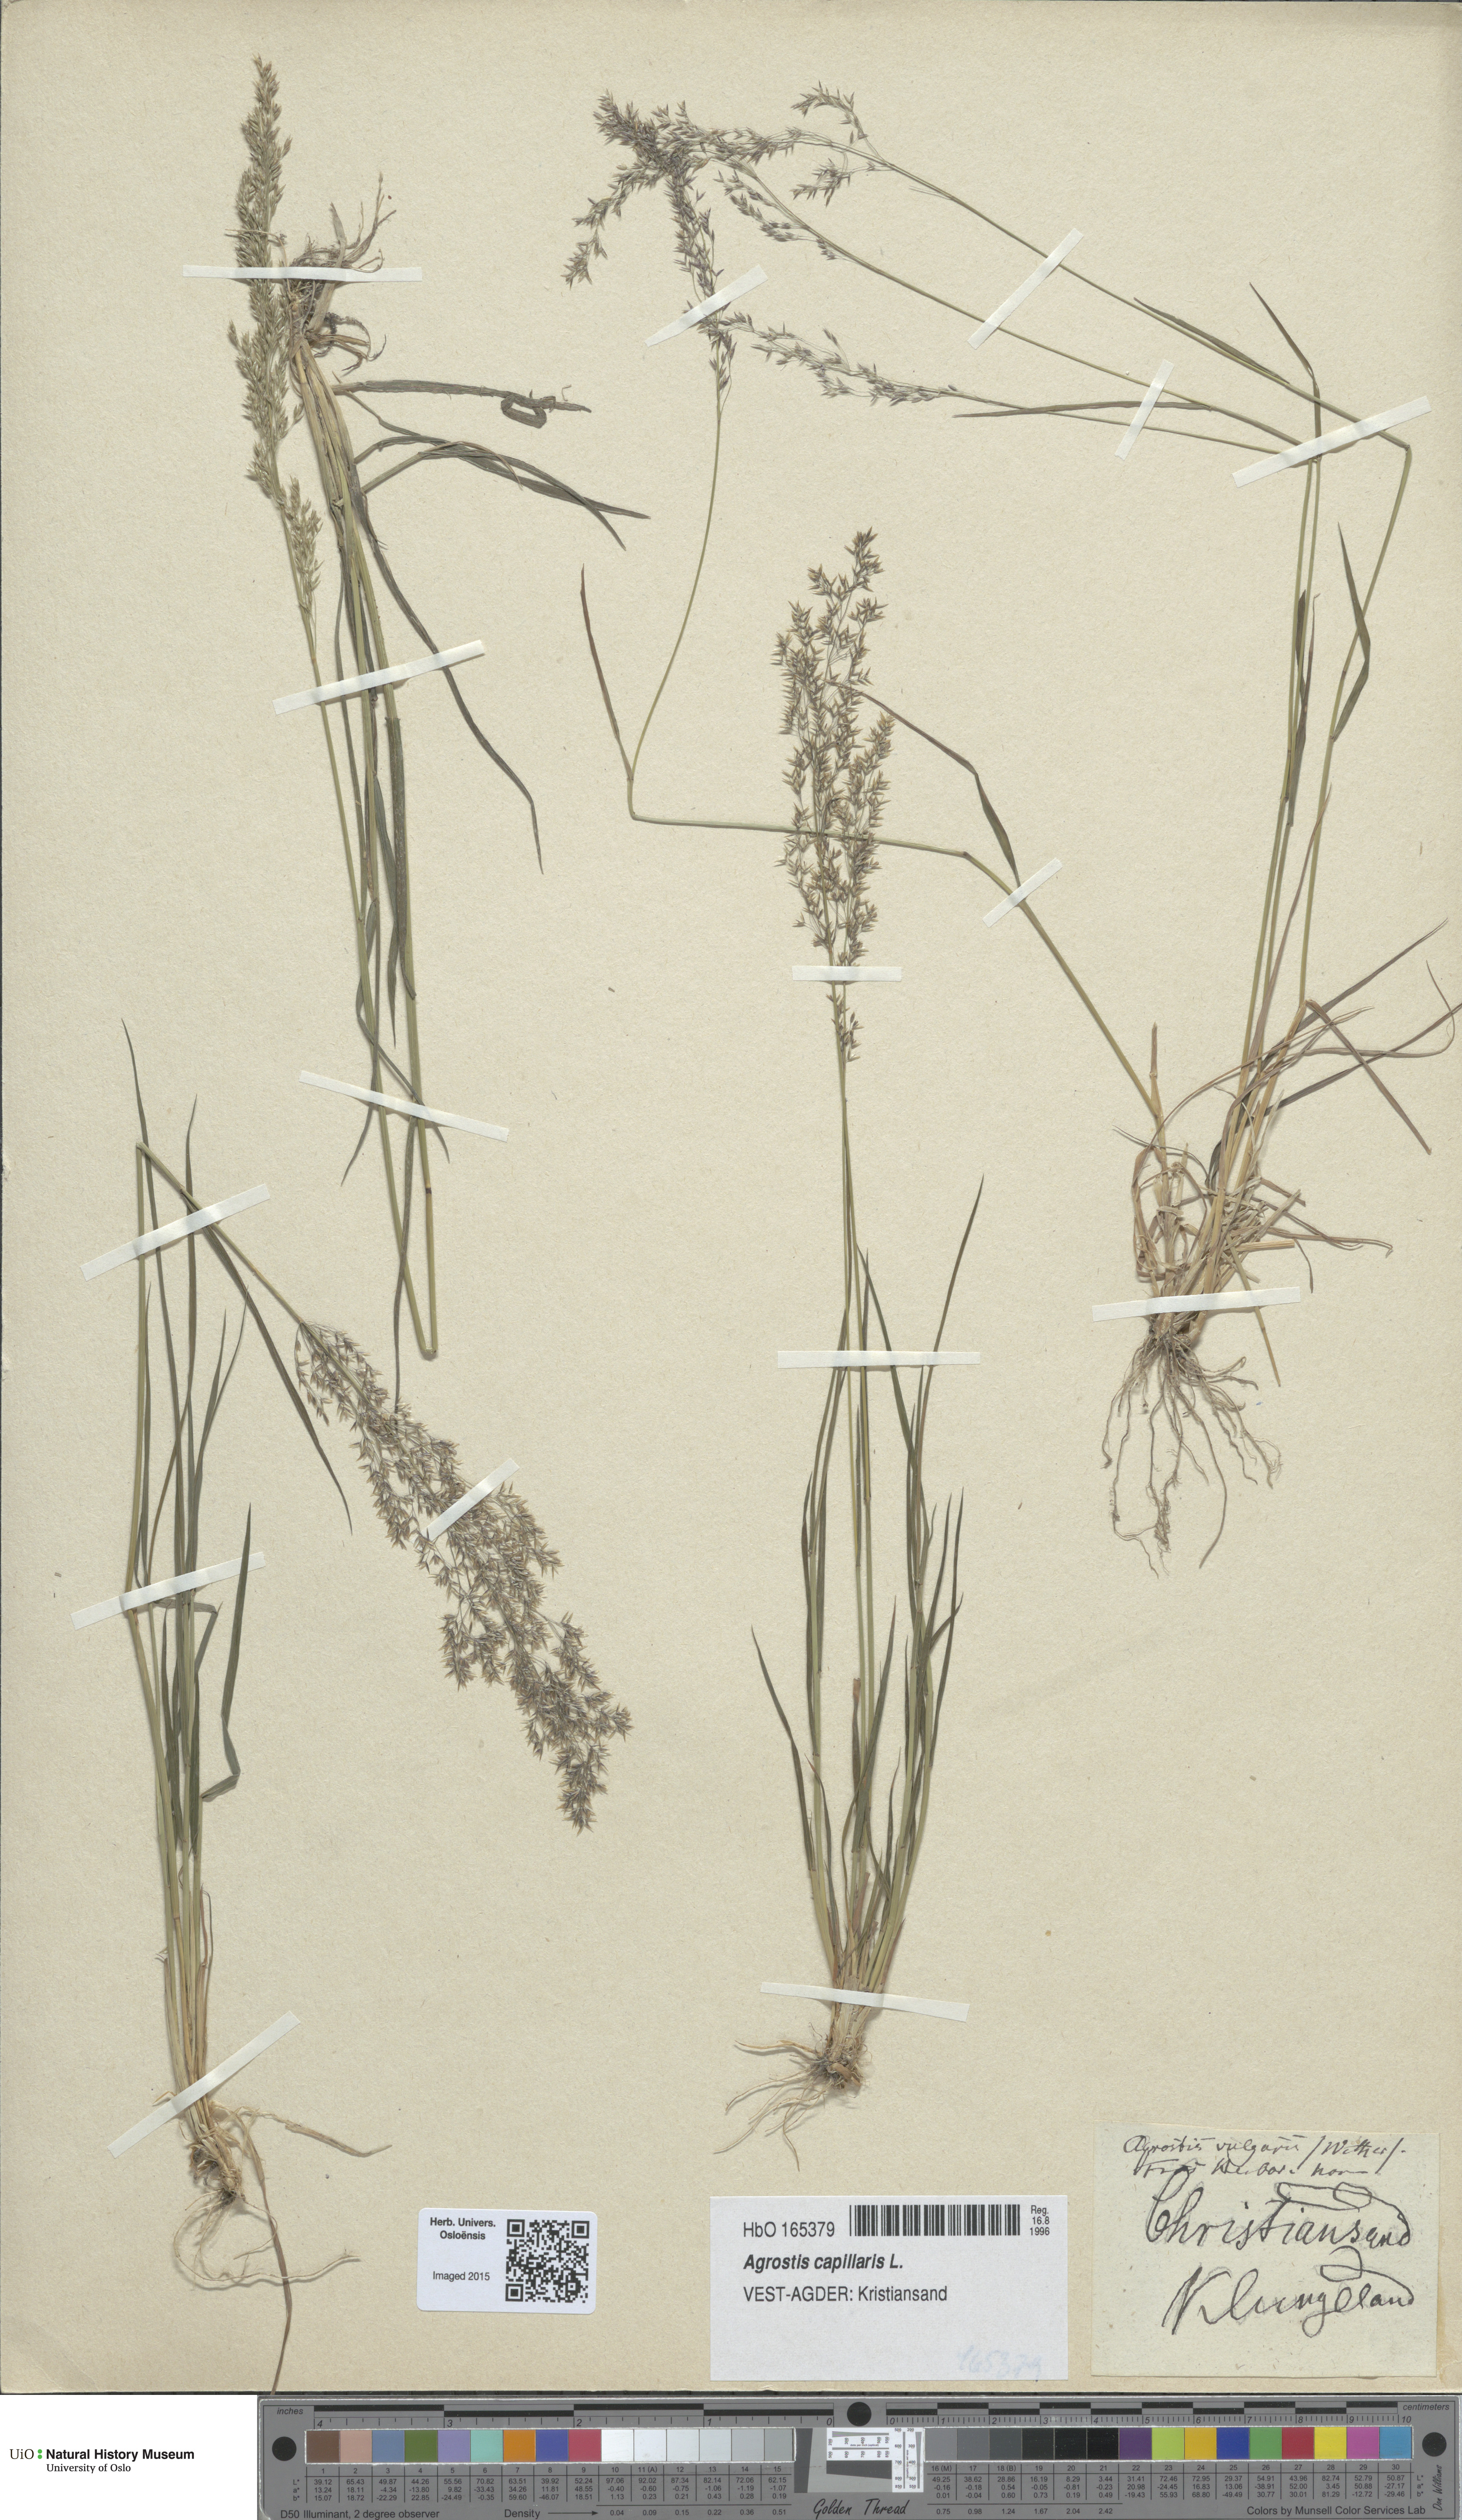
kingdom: Plantae
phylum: Tracheophyta
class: Liliopsida
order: Poales
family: Poaceae
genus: Agrostis
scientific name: Agrostis capillaris
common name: Colonial bentgrass
